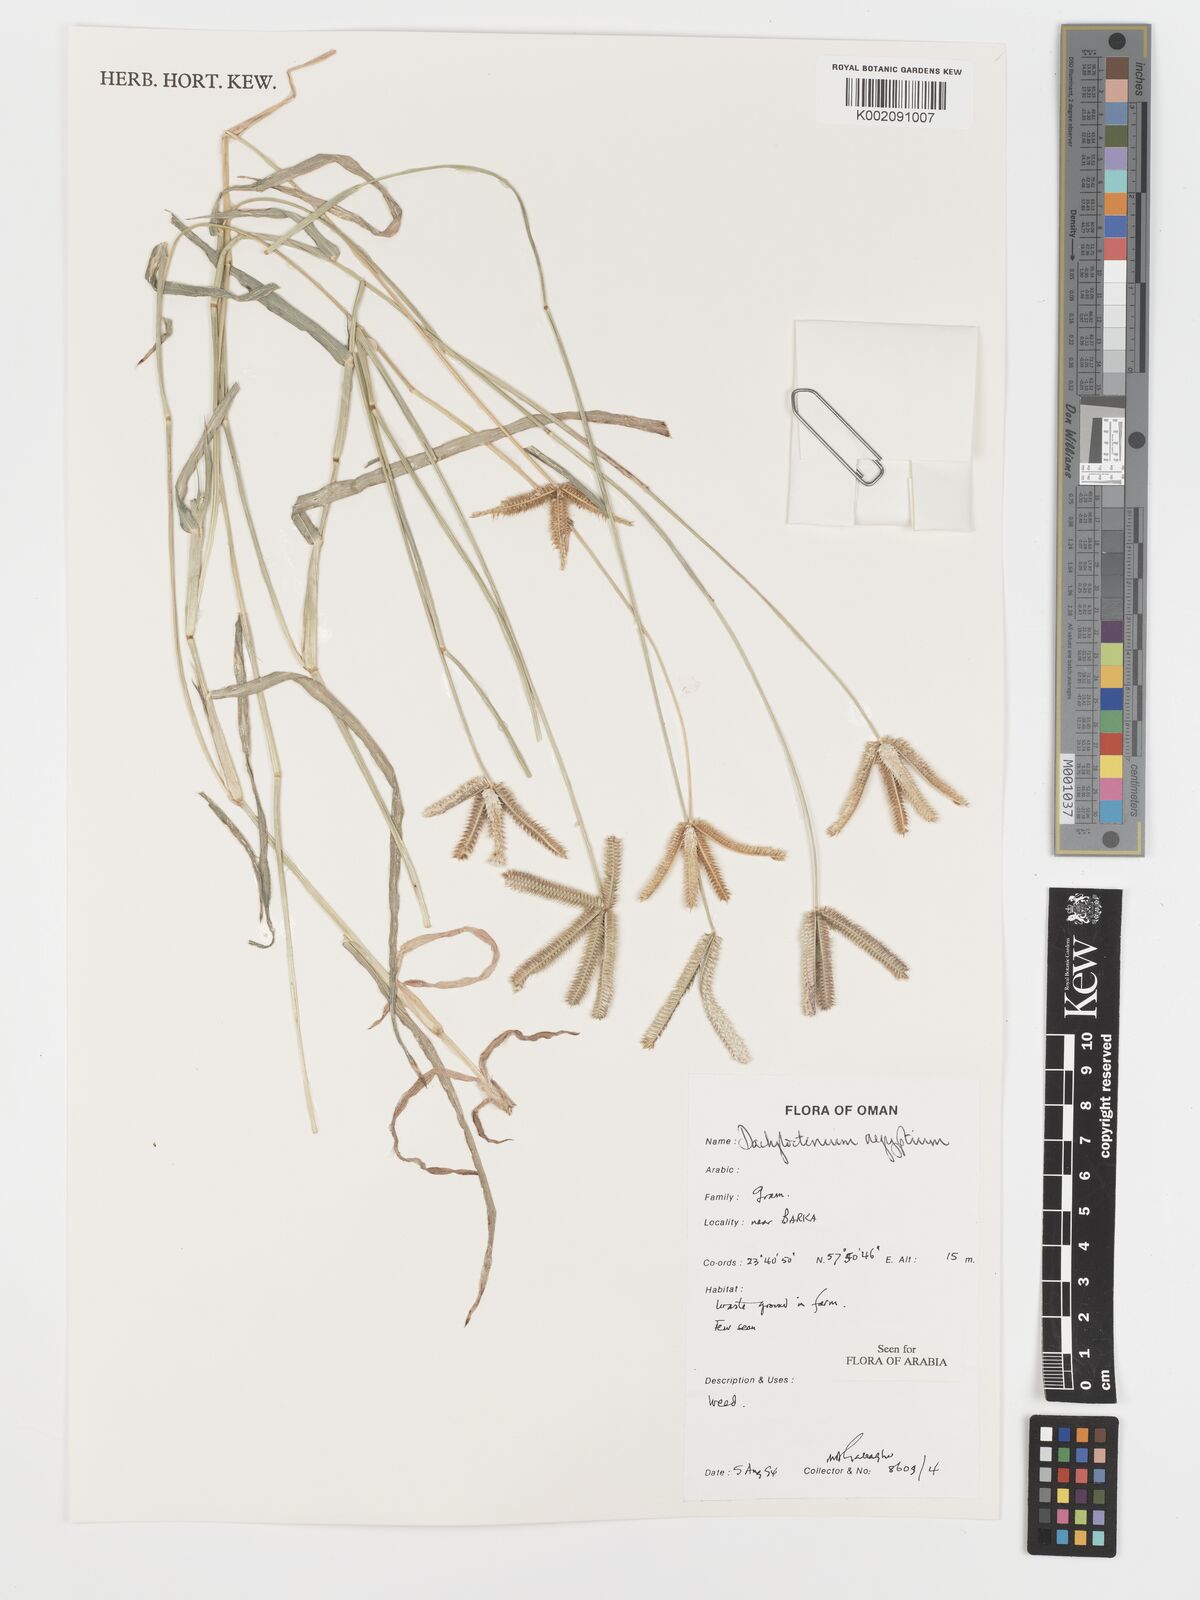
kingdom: Plantae
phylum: Tracheophyta
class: Liliopsida
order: Poales
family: Poaceae
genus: Dactyloctenium
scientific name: Dactyloctenium aegyptium
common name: Egyptian grass
